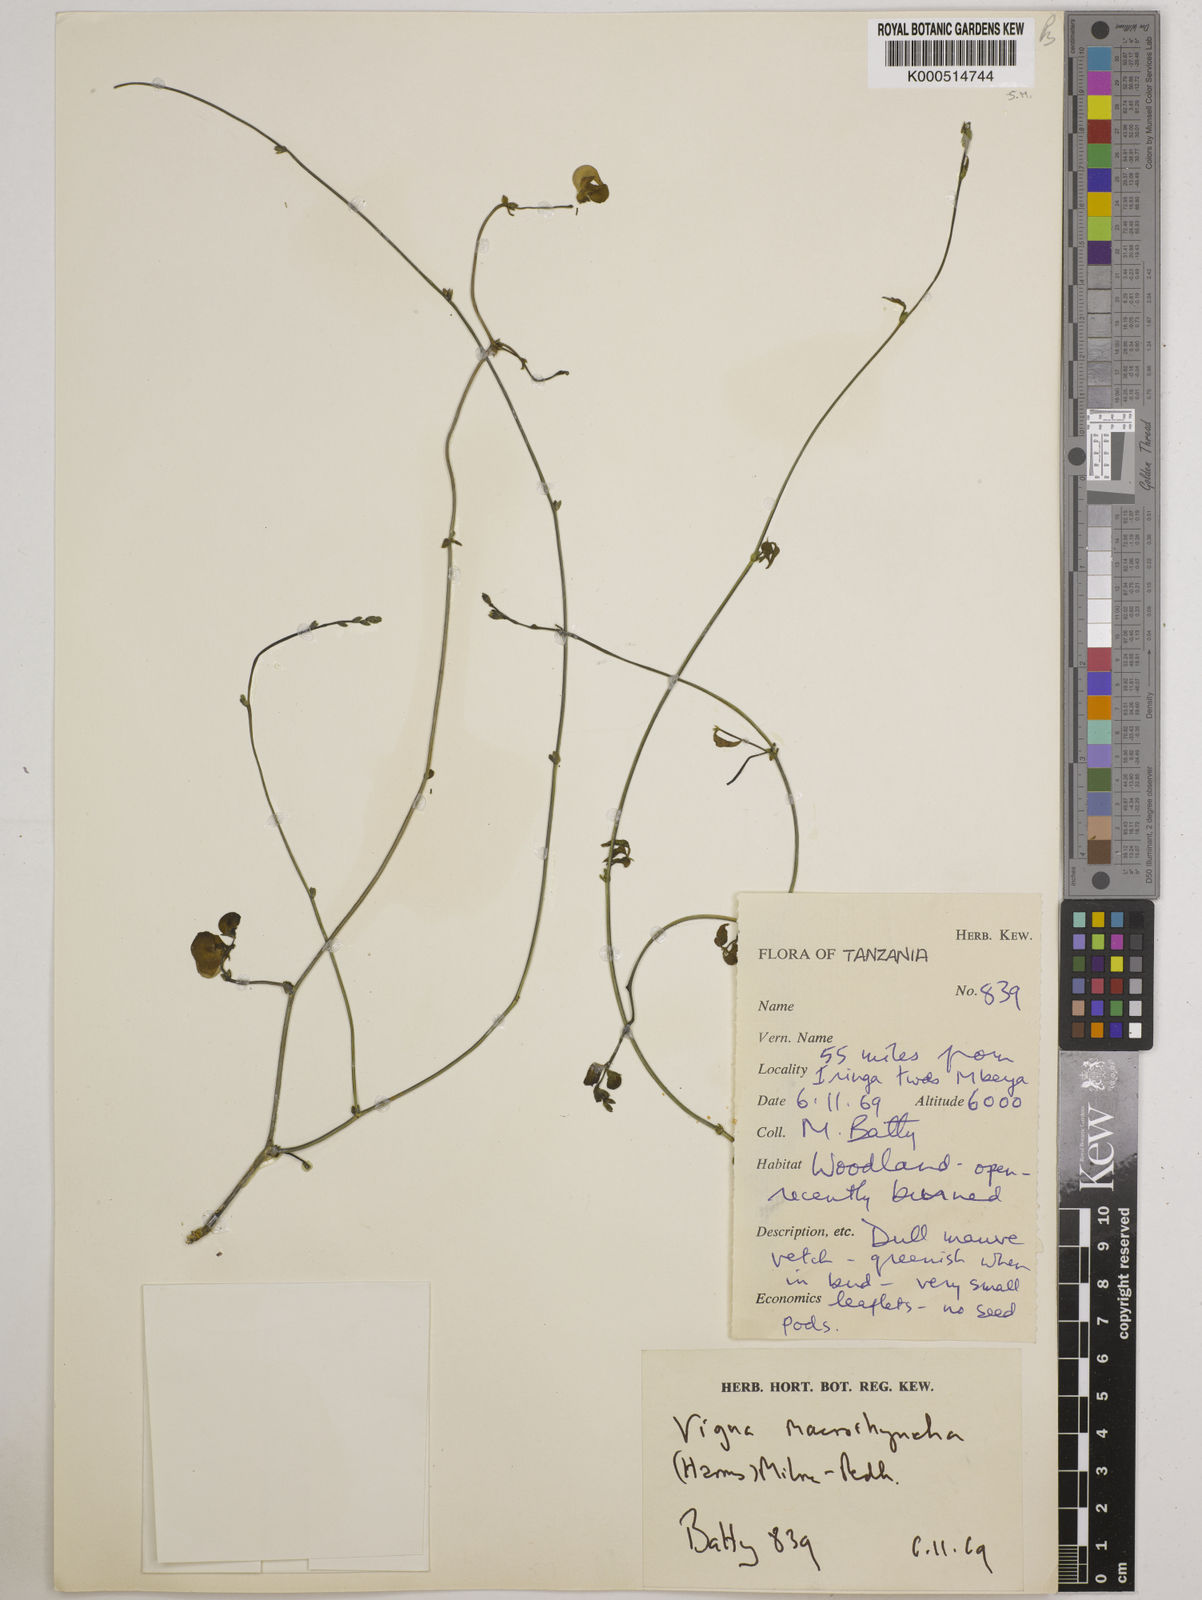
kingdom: Plantae
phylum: Tracheophyta
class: Magnoliopsida
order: Fabales
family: Fabaceae
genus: Wajira
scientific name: Wajira grahamiana
